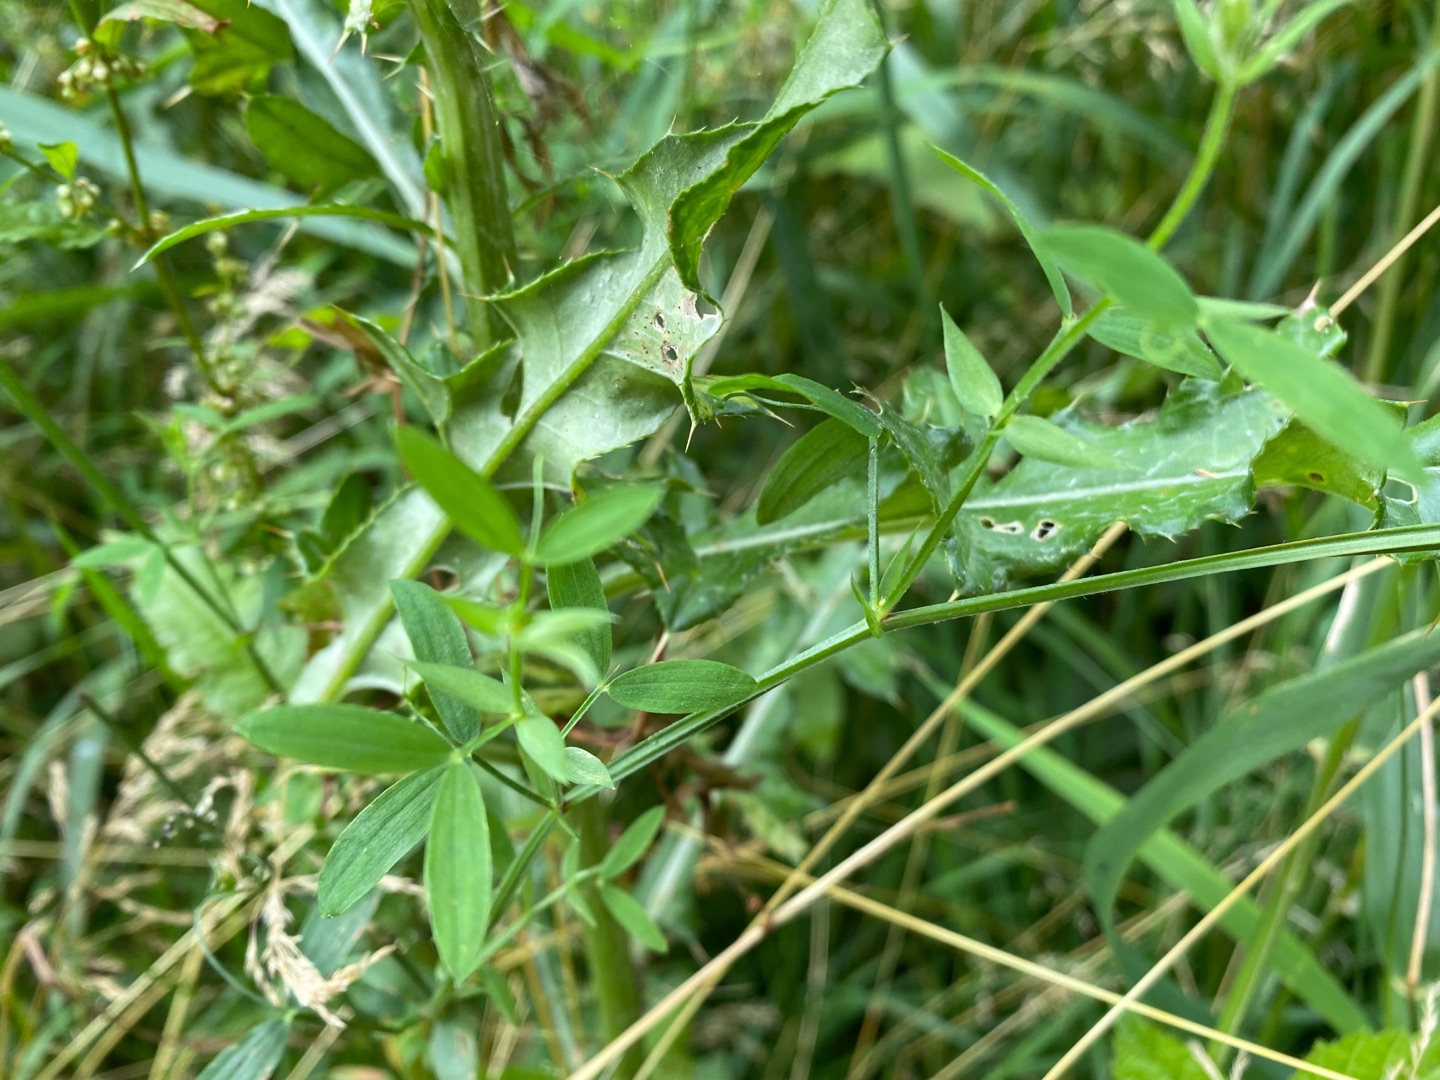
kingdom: Plantae
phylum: Tracheophyta
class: Magnoliopsida
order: Fabales
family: Fabaceae
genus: Lathyrus
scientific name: Lathyrus pratensis
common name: Gul fladbælg
